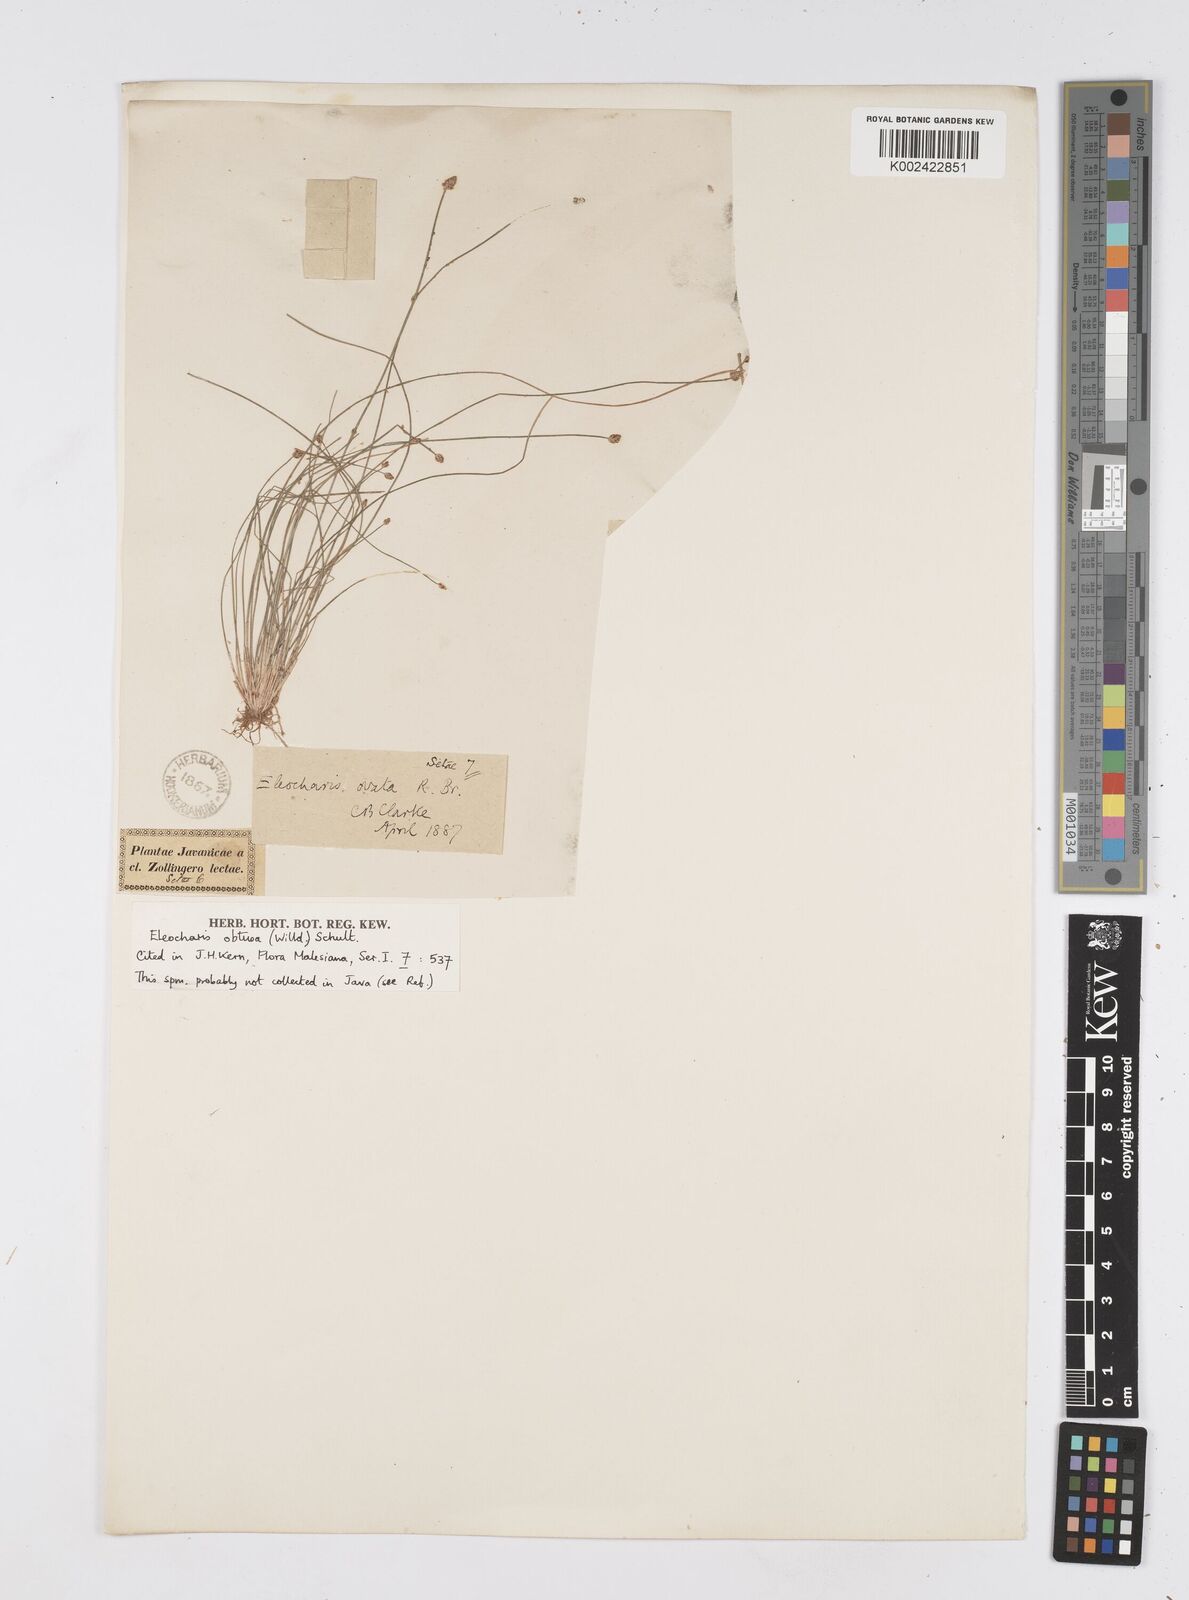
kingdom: Plantae
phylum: Tracheophyta
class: Liliopsida
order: Poales
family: Cyperaceae
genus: Eleocharis
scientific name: Eleocharis obtusa
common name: Blunt spikerush
